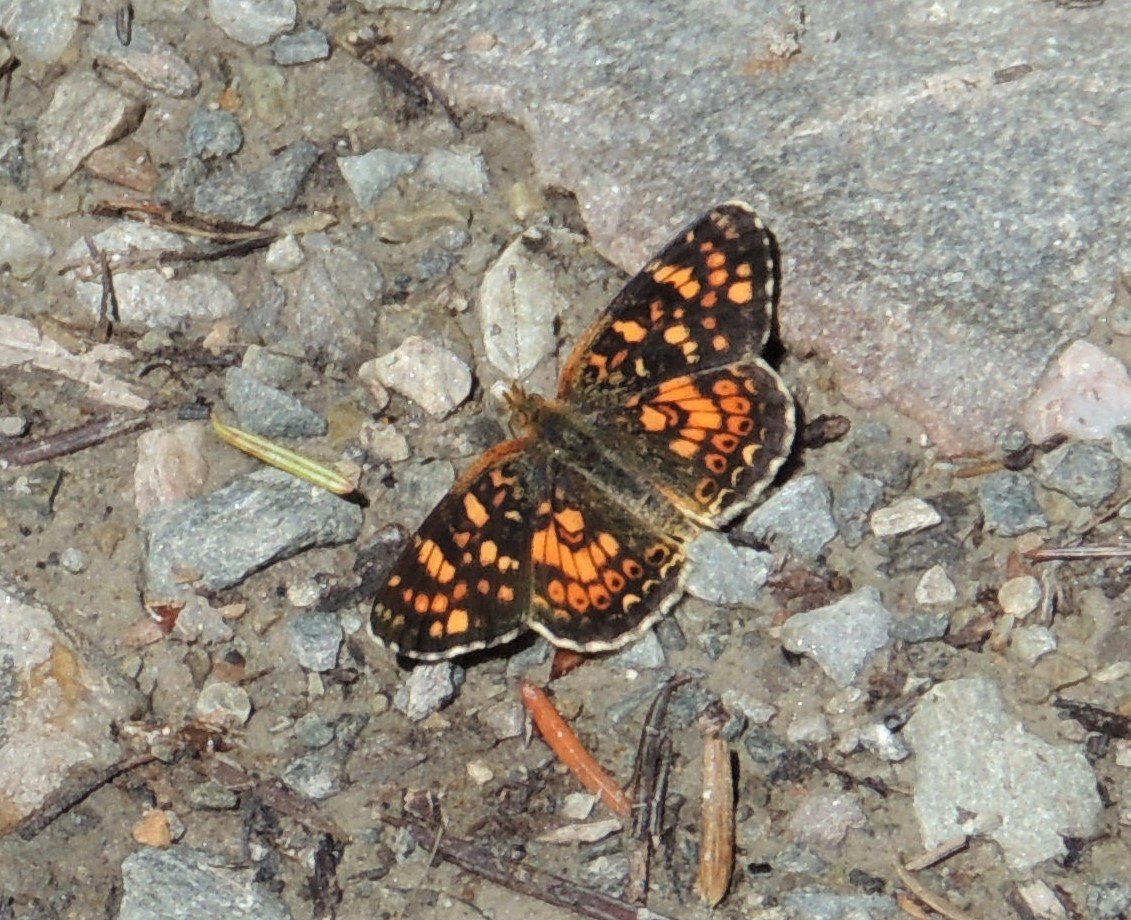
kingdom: Animalia
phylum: Arthropoda
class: Insecta
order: Lepidoptera
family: Nymphalidae
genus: Phyciodes
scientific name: Phyciodes tharos
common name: Field Crescent
